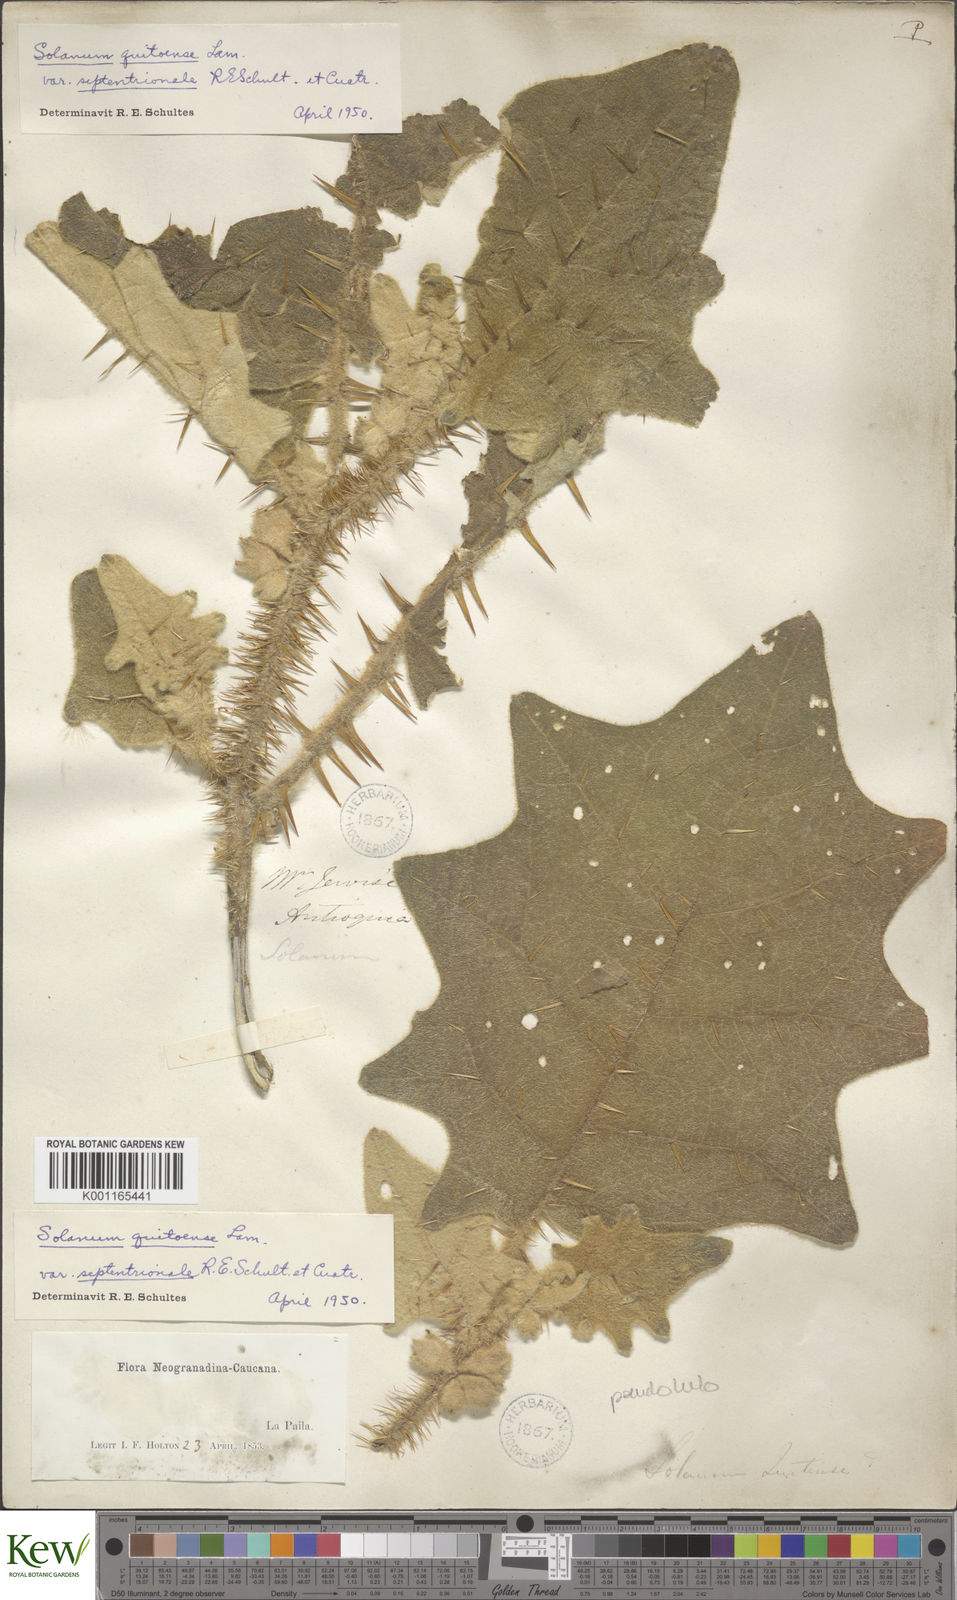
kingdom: Plantae
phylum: Tracheophyta
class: Magnoliopsida
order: Solanales
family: Solanaceae
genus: Solanum
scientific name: Solanum pseudolulo
